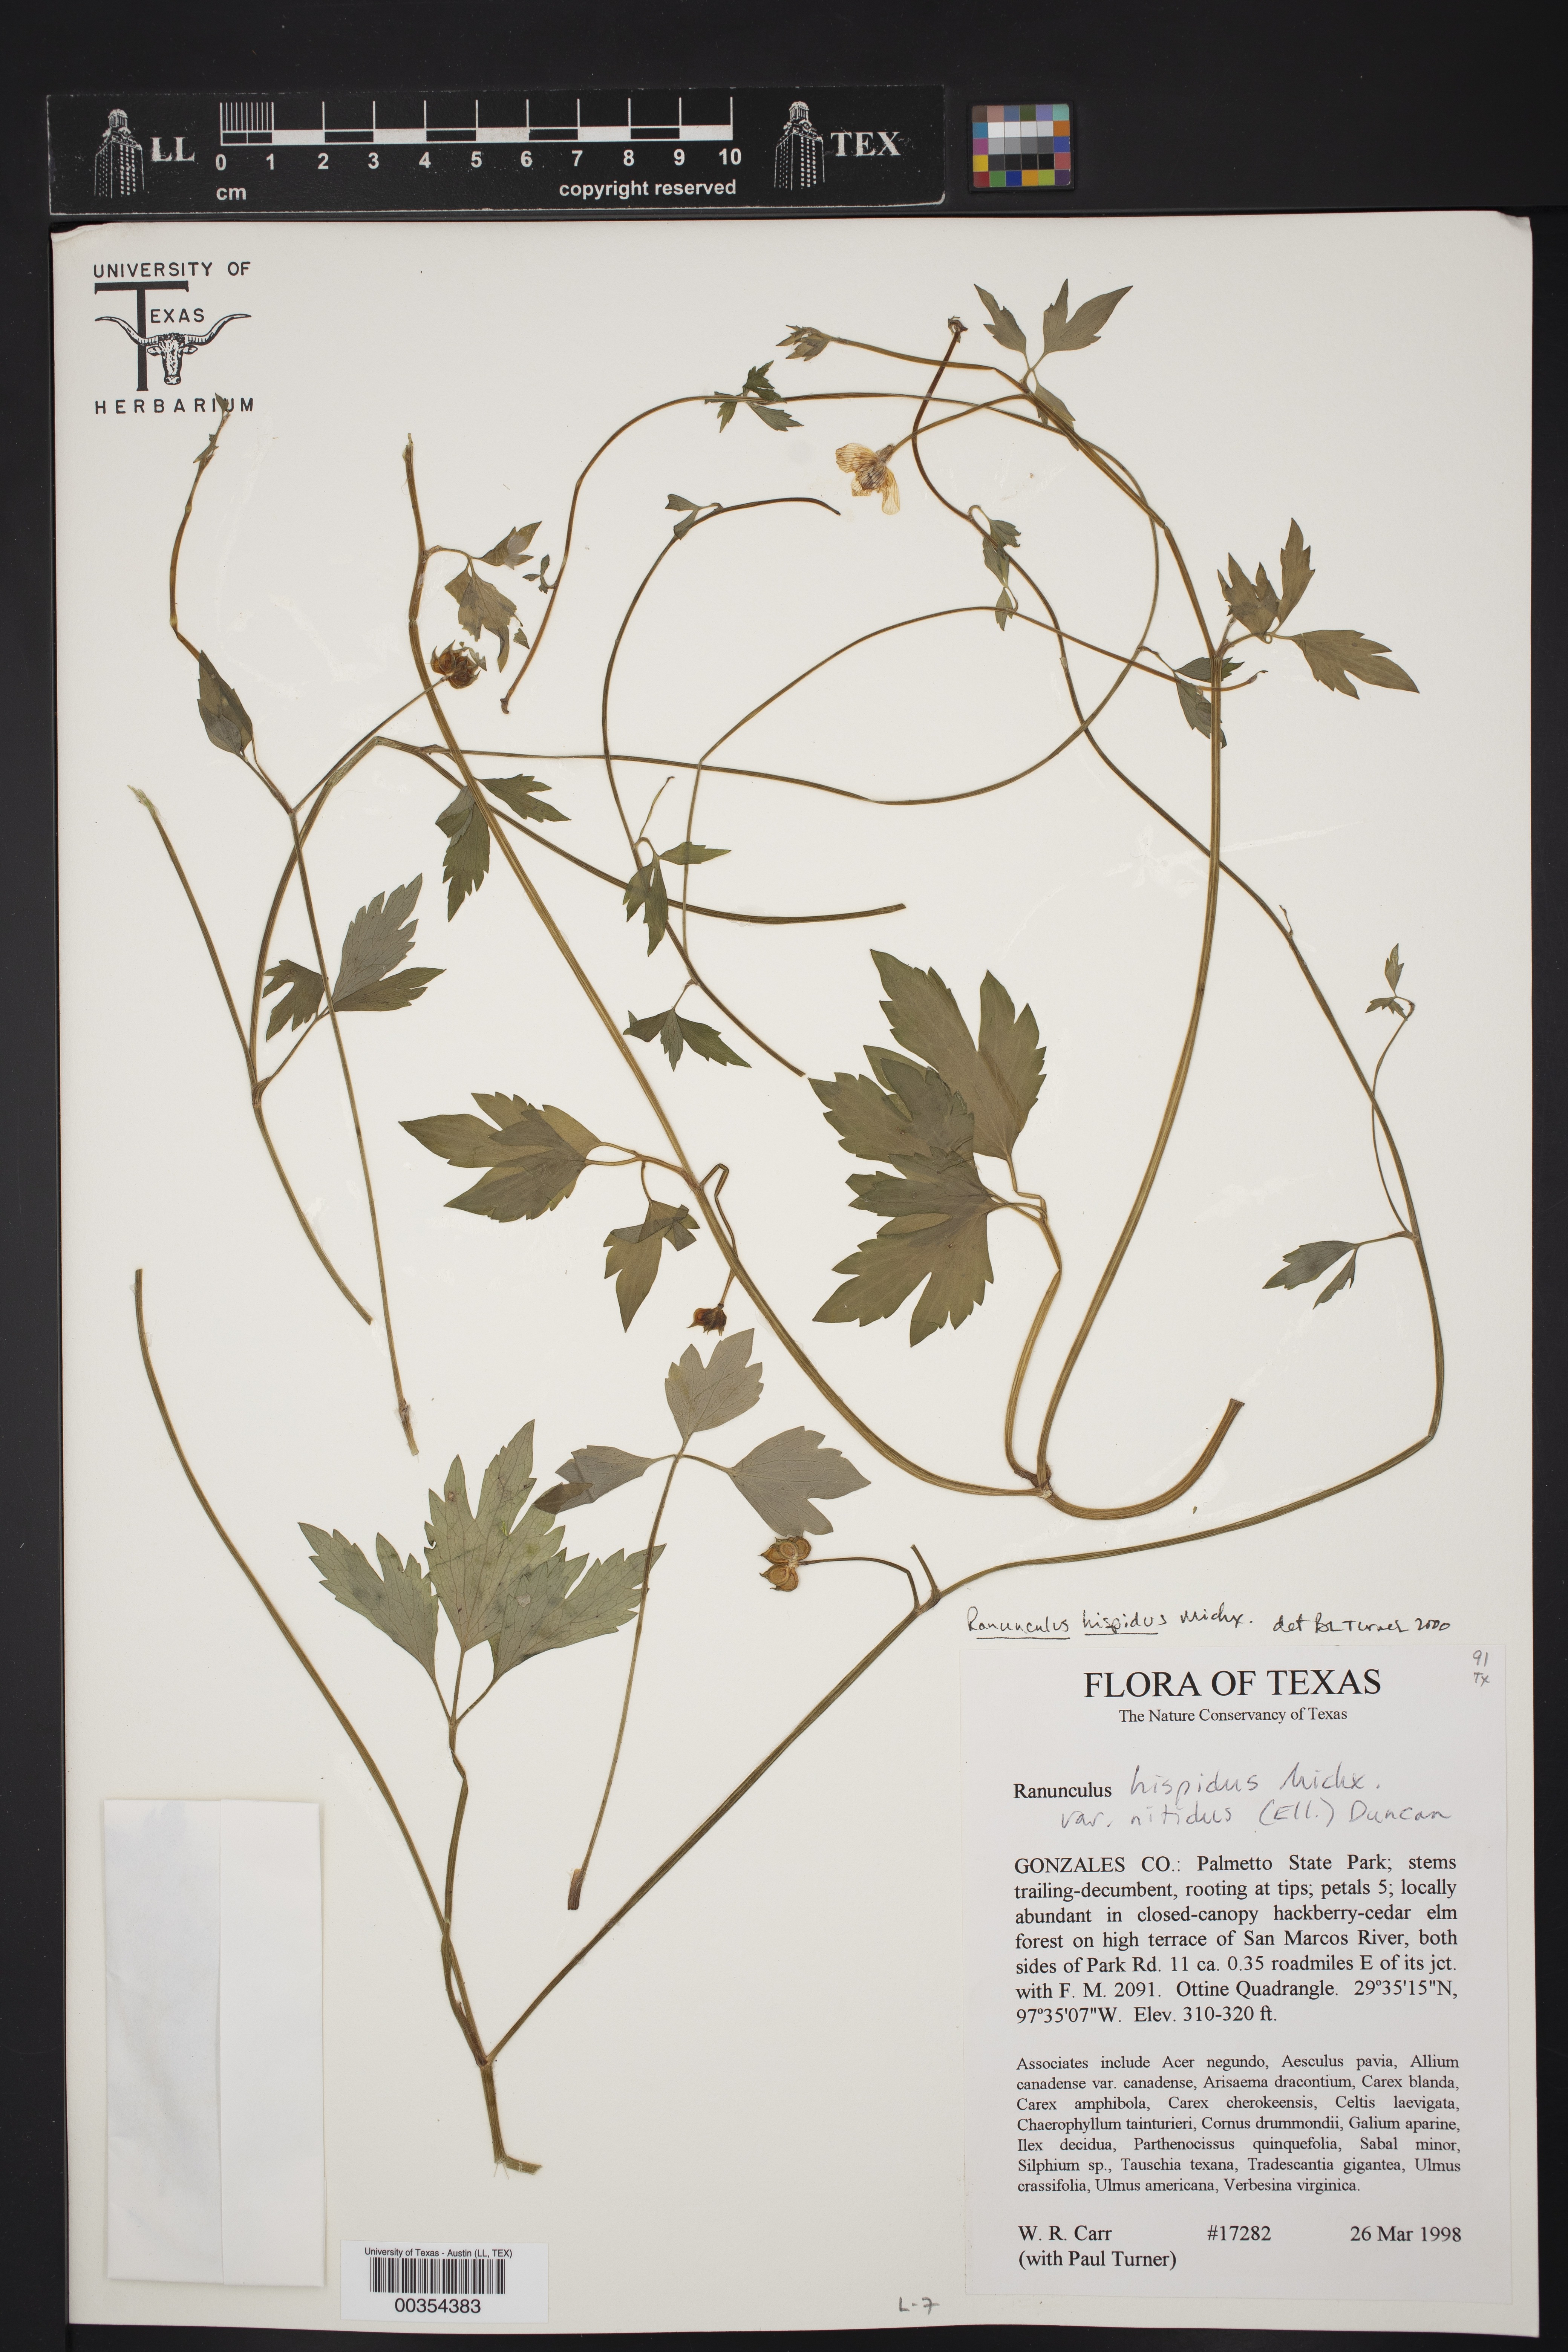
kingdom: Plantae
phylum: Tracheophyta
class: Magnoliopsida
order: Ranunculales
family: Ranunculaceae
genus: Ranunculus
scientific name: Ranunculus hispidus
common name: Bristly buttercup
